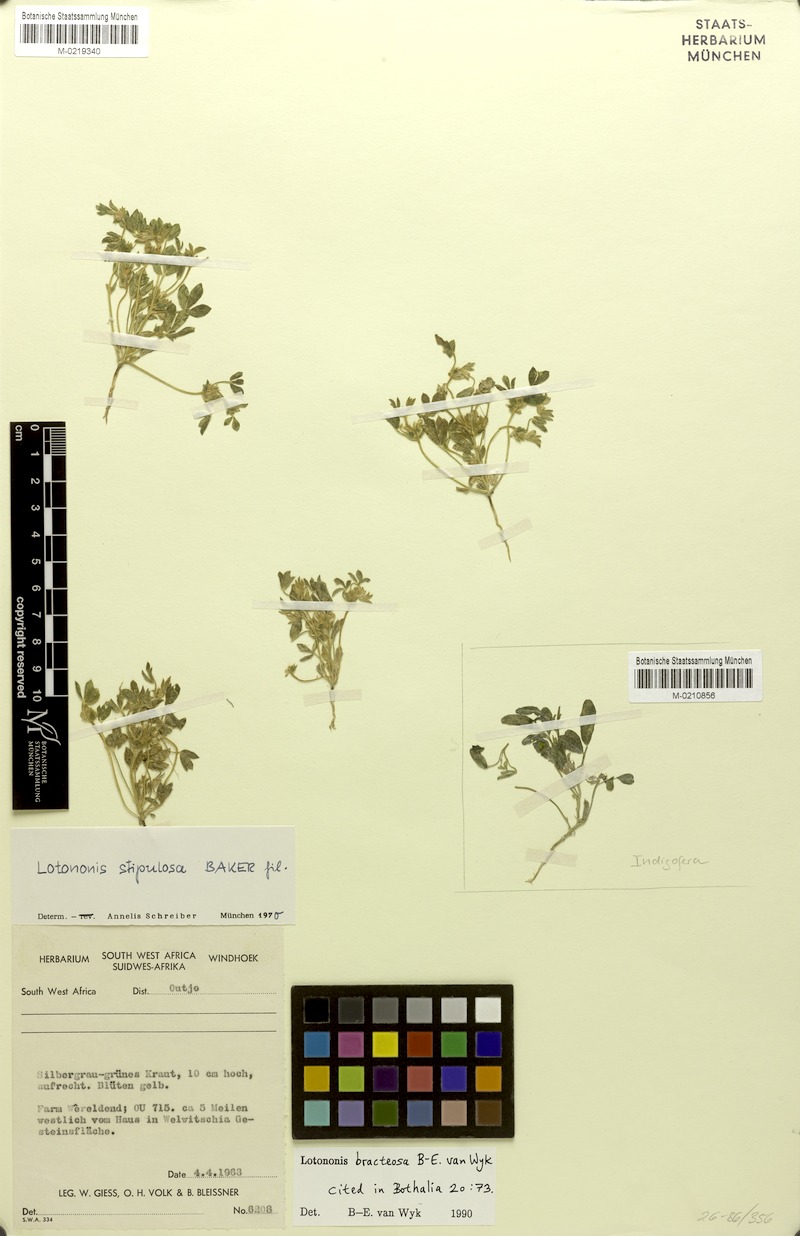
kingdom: Plantae
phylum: Tracheophyta
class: Magnoliopsida
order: Fabales
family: Fabaceae
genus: Leobordea
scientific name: Leobordea bracteosa
